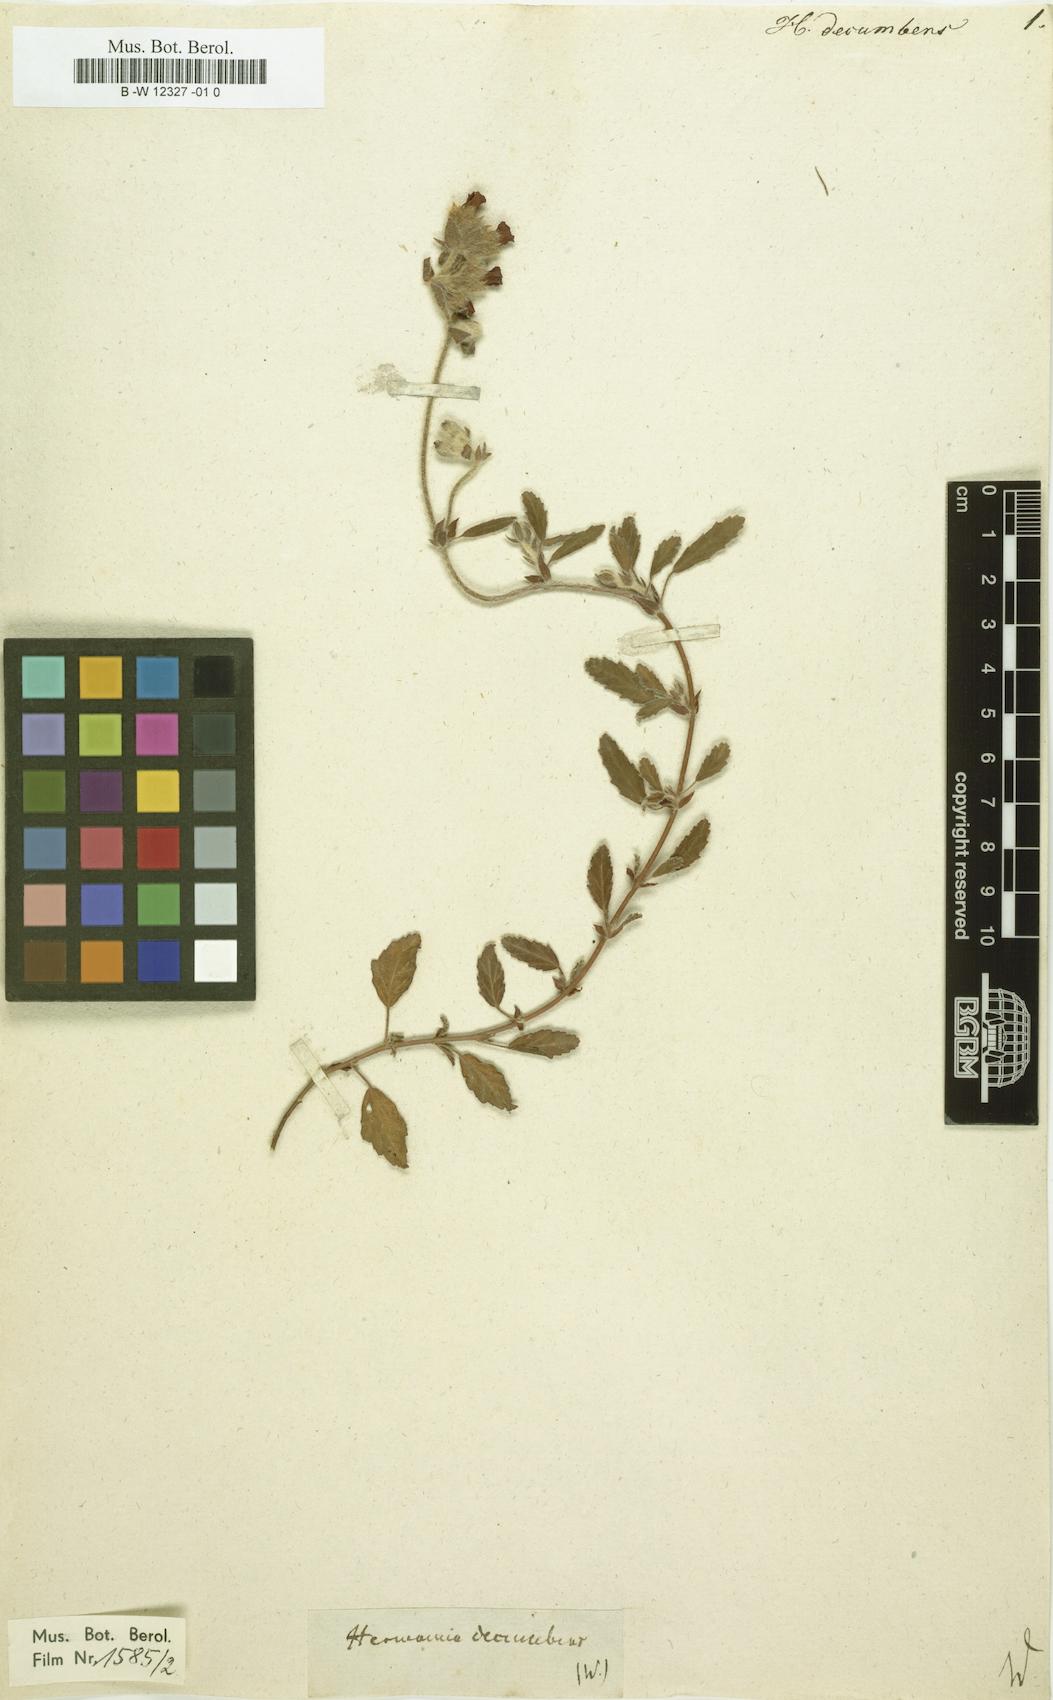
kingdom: Plantae
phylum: Tracheophyta
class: Magnoliopsida
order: Malvales
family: Malvaceae
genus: Hermannia
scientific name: Hermannia decumbens
